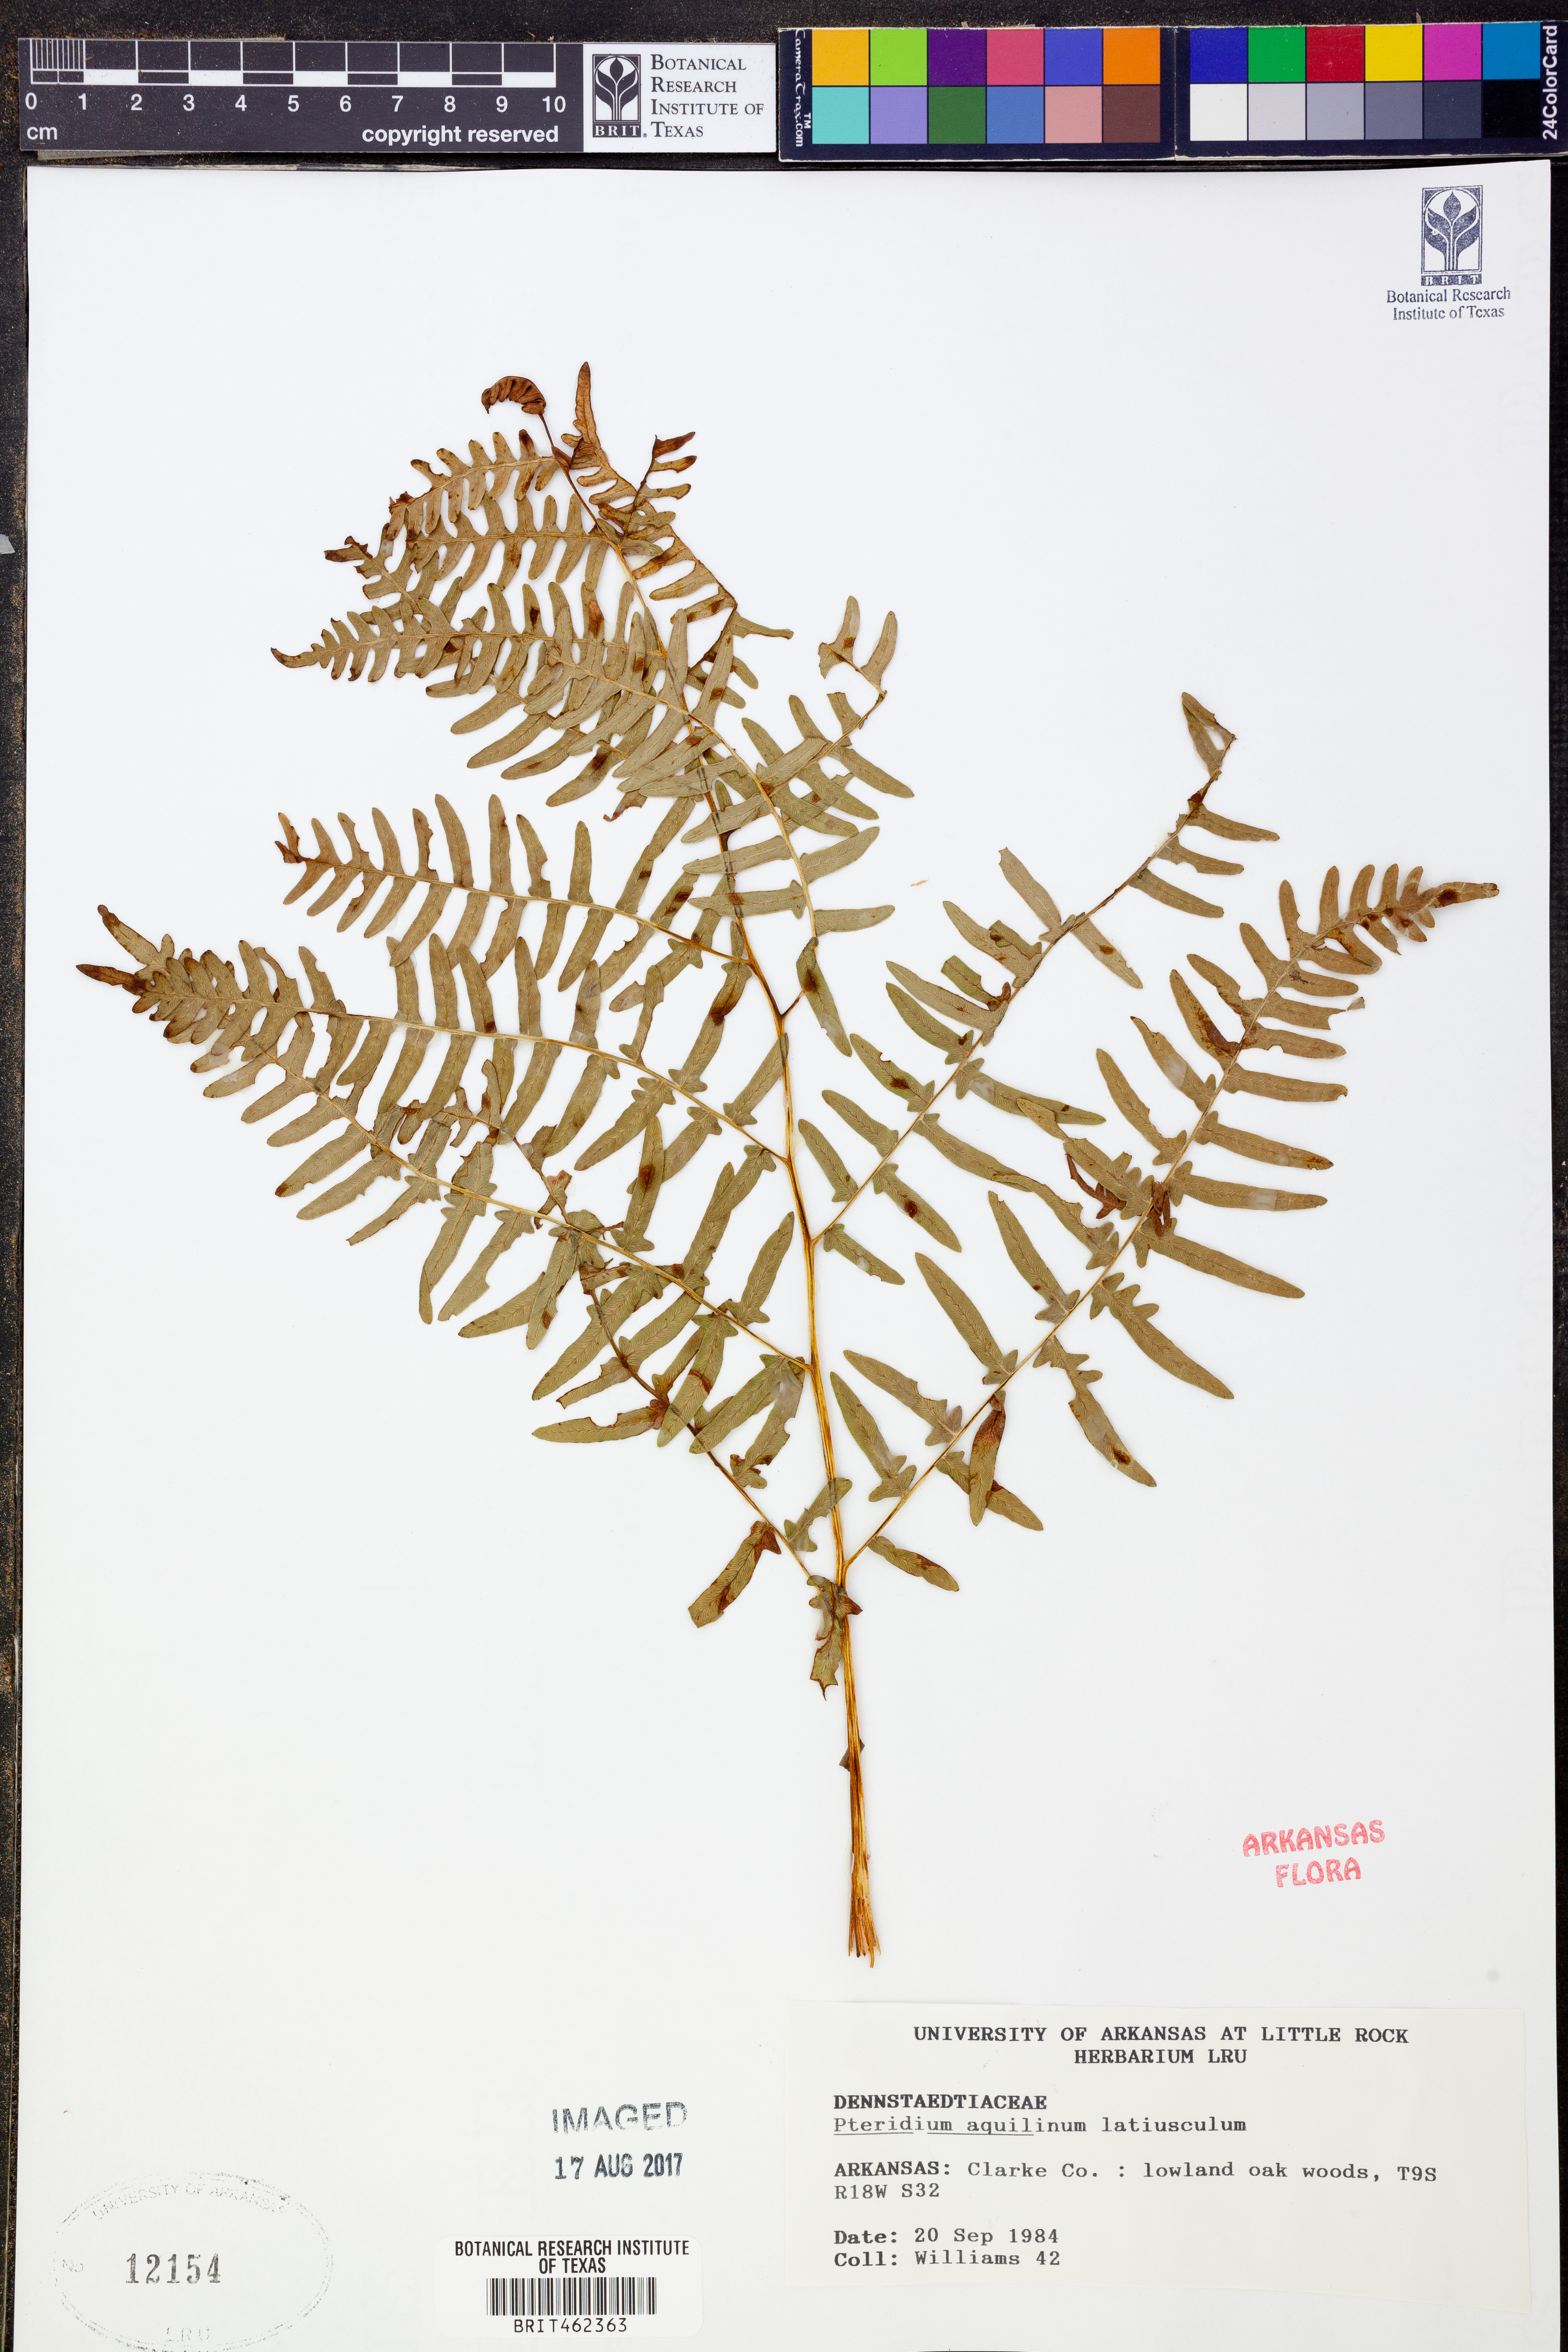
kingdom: Plantae
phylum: Tracheophyta
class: Polypodiopsida
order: Polypodiales
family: Dennstaedtiaceae
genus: Pteridium
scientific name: Pteridium aquilinum
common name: Bracken
